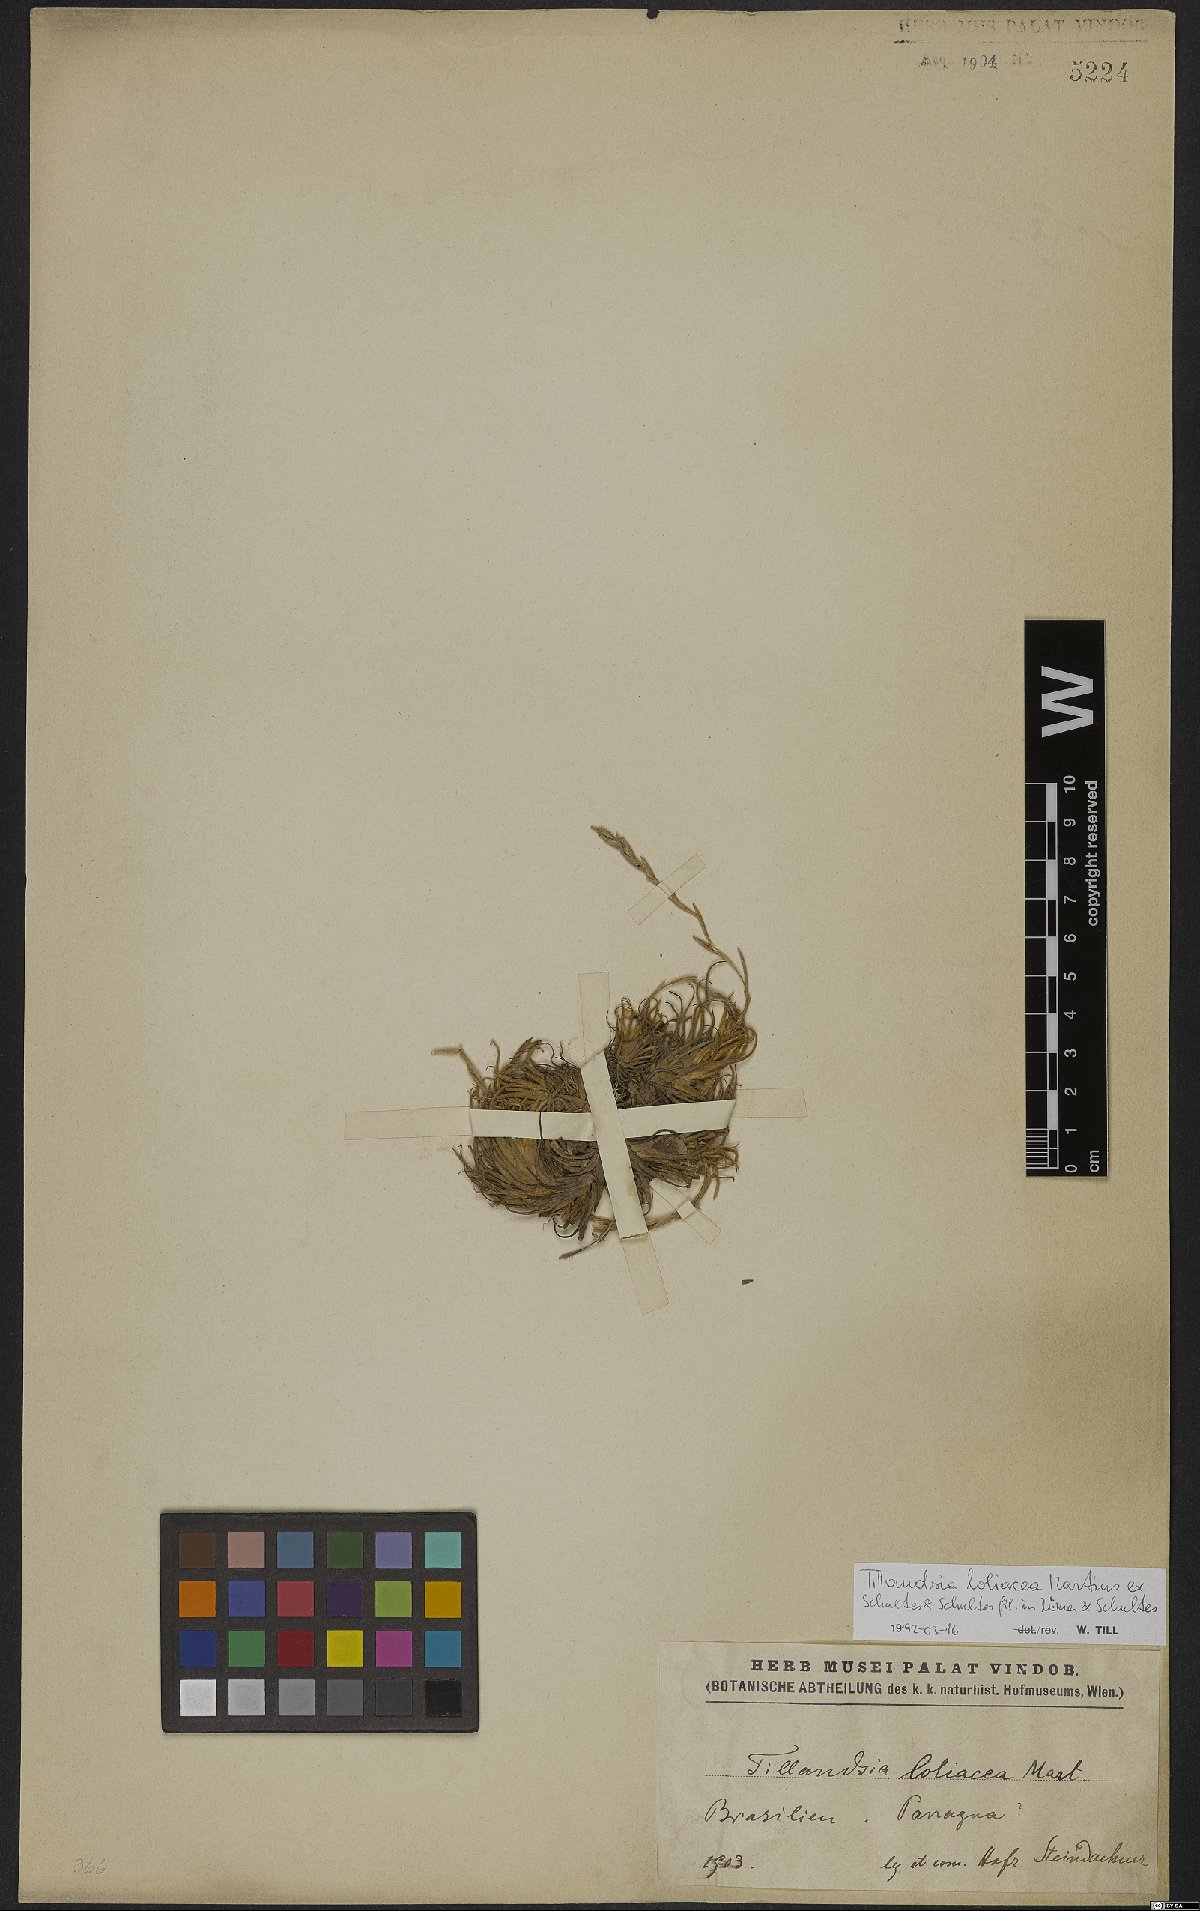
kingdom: Plantae
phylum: Tracheophyta
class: Liliopsida
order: Poales
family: Bromeliaceae
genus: Tillandsia
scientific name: Tillandsia loliacea
